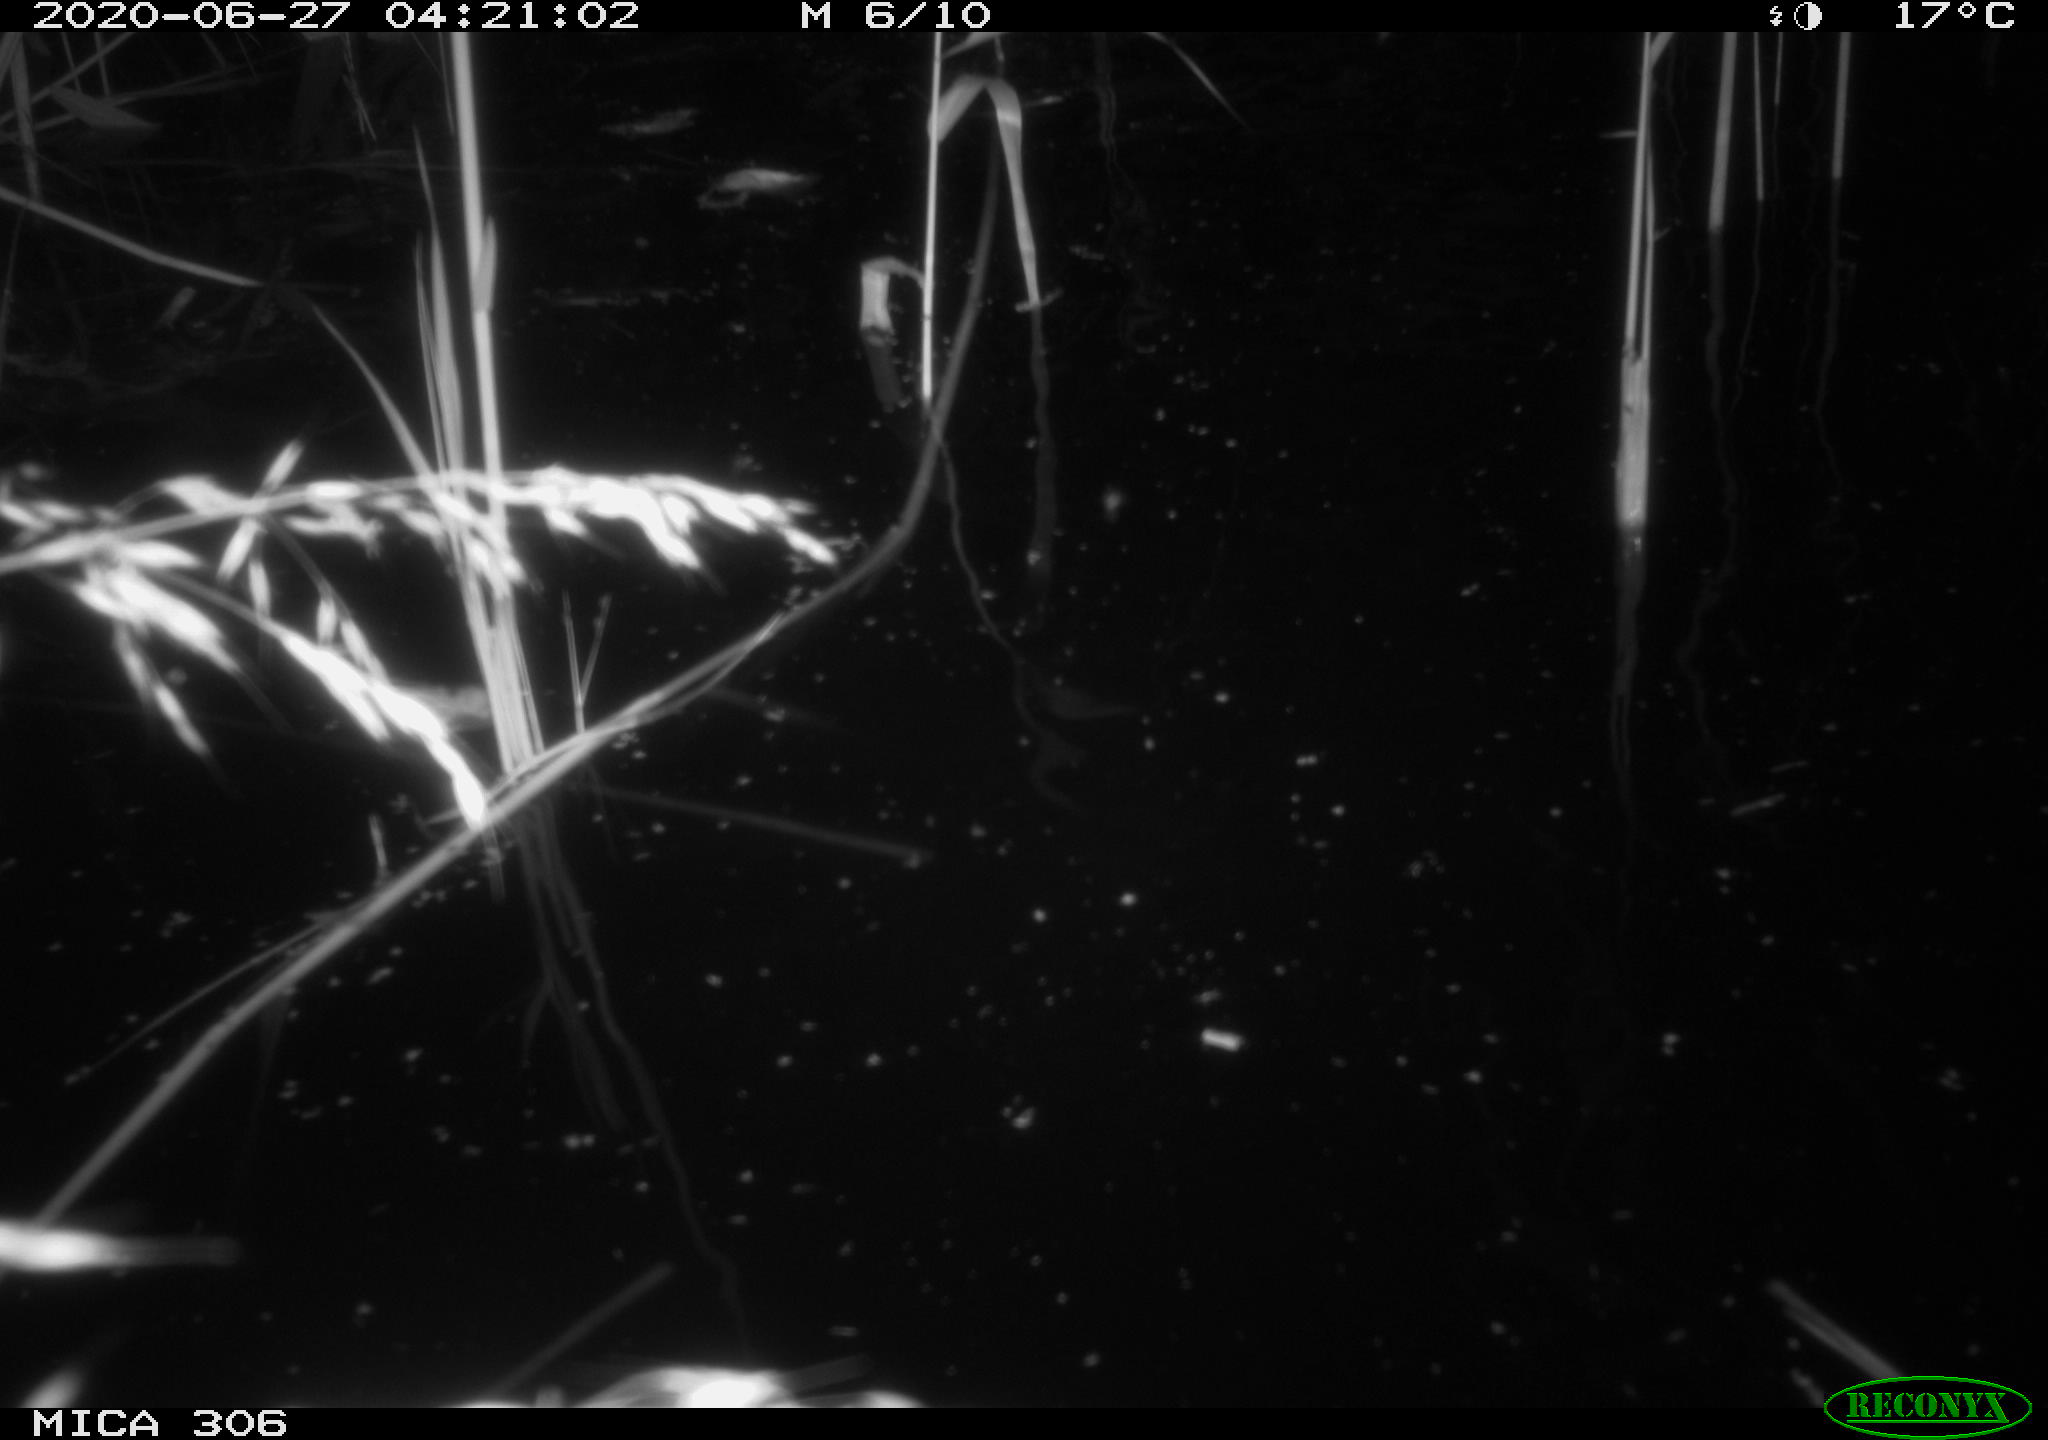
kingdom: Animalia
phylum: Chordata
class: Mammalia
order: Rodentia
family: Muridae
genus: Rattus
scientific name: Rattus norvegicus
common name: Brown rat
